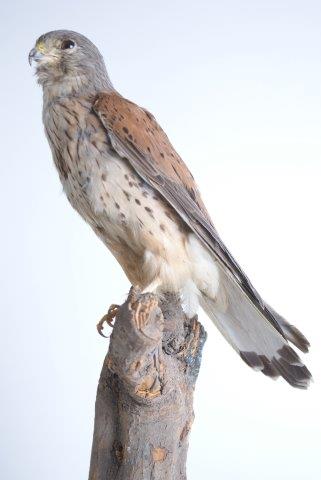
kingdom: Animalia
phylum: Chordata
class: Aves
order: Falconiformes
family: Falconidae
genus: Falco
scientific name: Falco tinnunculus
